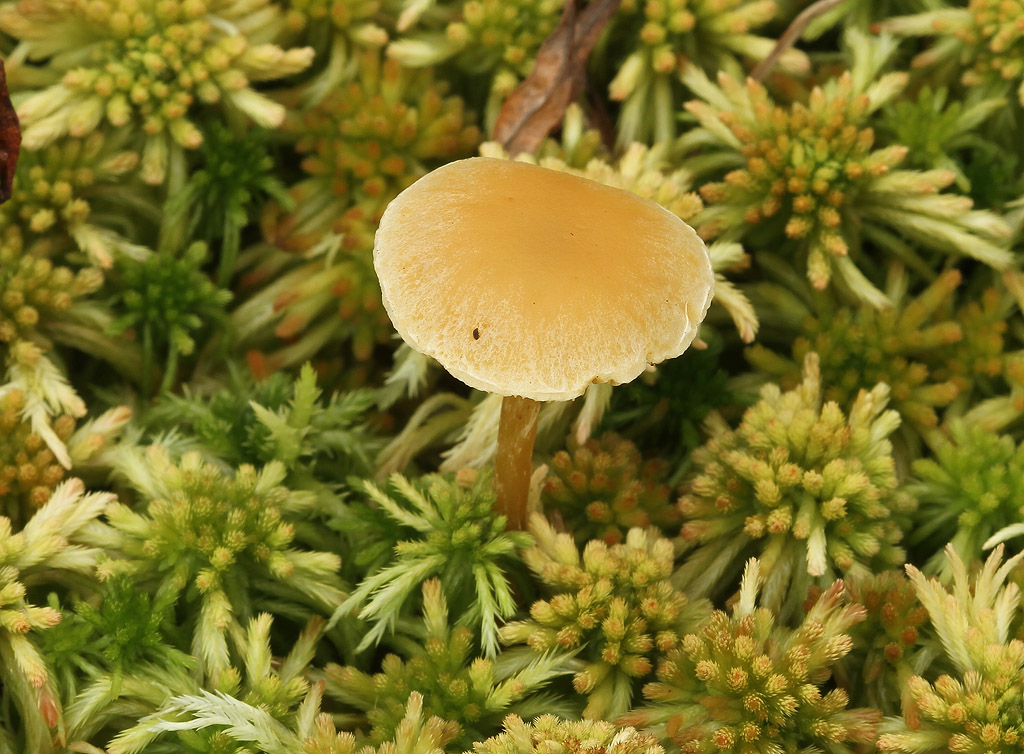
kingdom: Fungi
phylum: Basidiomycota
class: Agaricomycetes
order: Agaricales
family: Strophariaceae
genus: Hypholoma
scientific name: Hypholoma elongatum
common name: slank svovlhat
